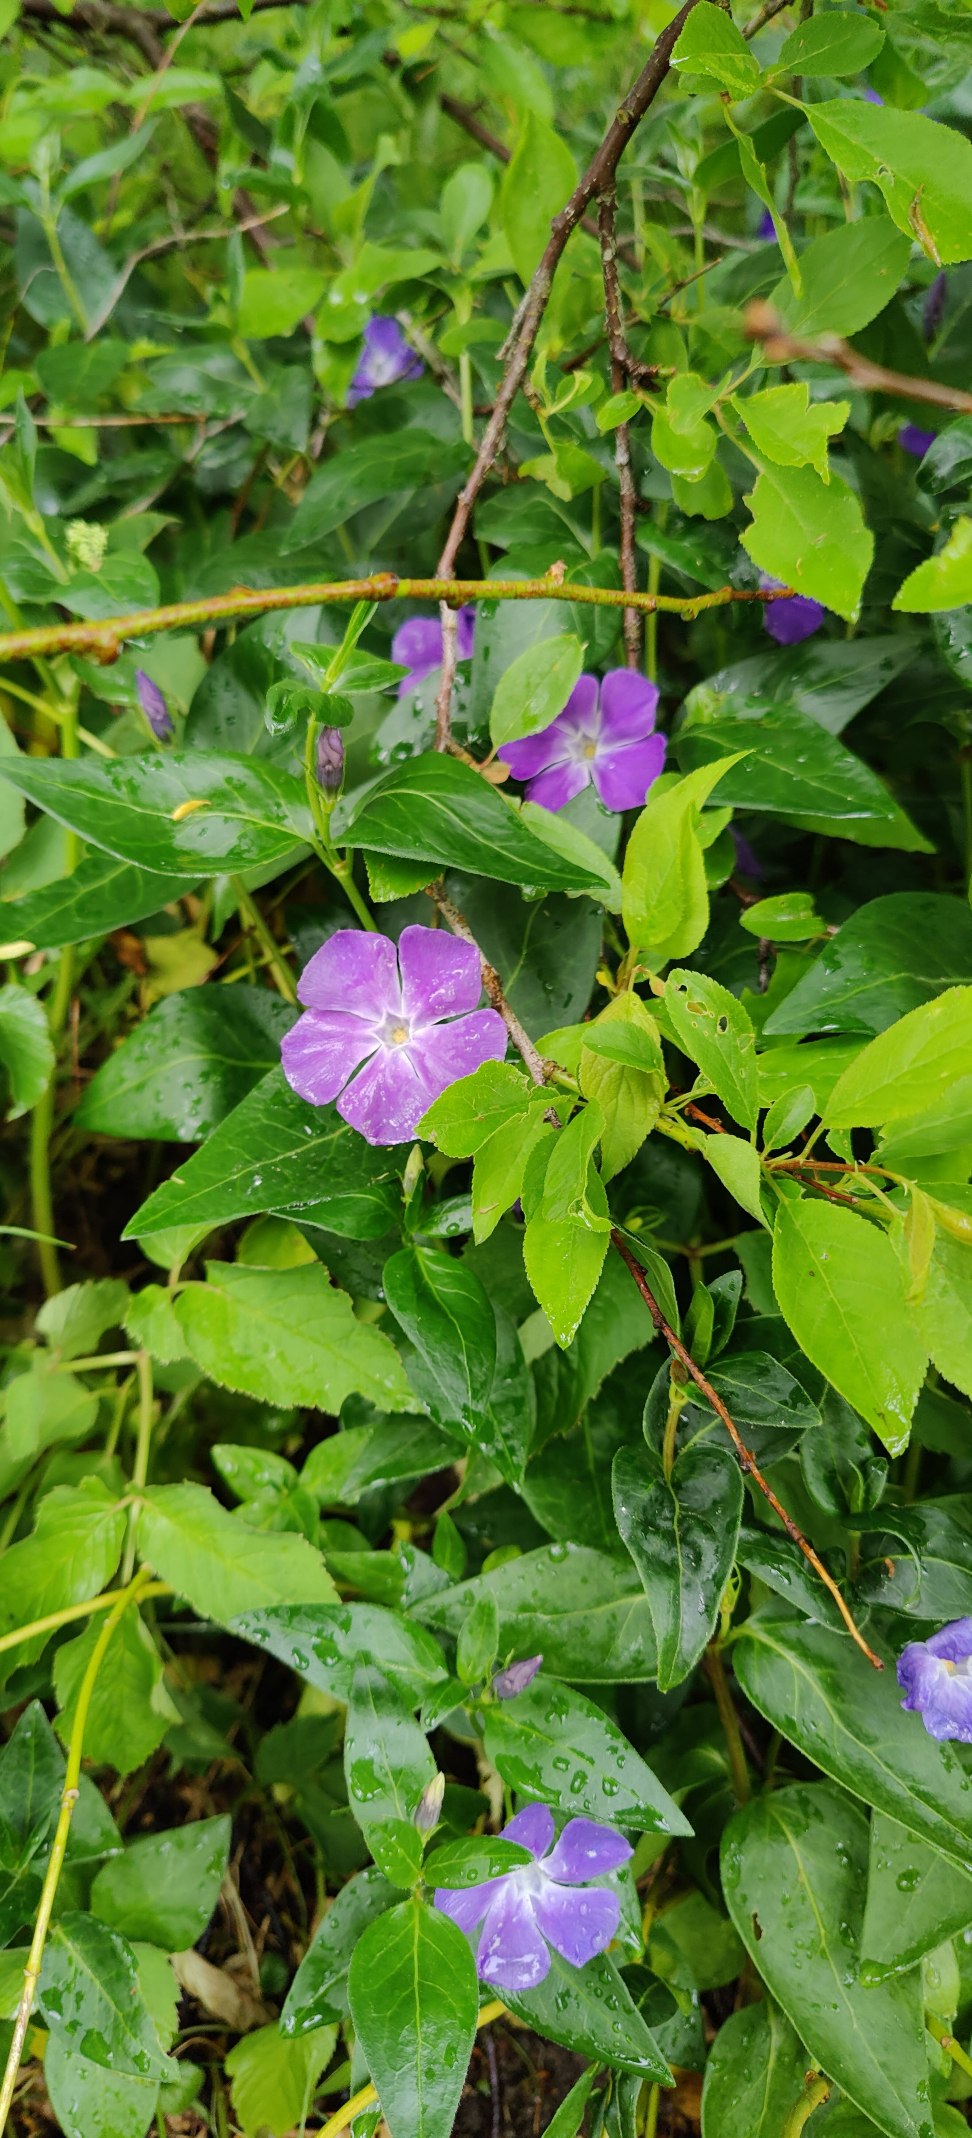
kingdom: Plantae
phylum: Tracheophyta
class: Magnoliopsida
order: Gentianales
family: Apocynaceae
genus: Vinca
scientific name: Vinca minor
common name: Liden singrøn
